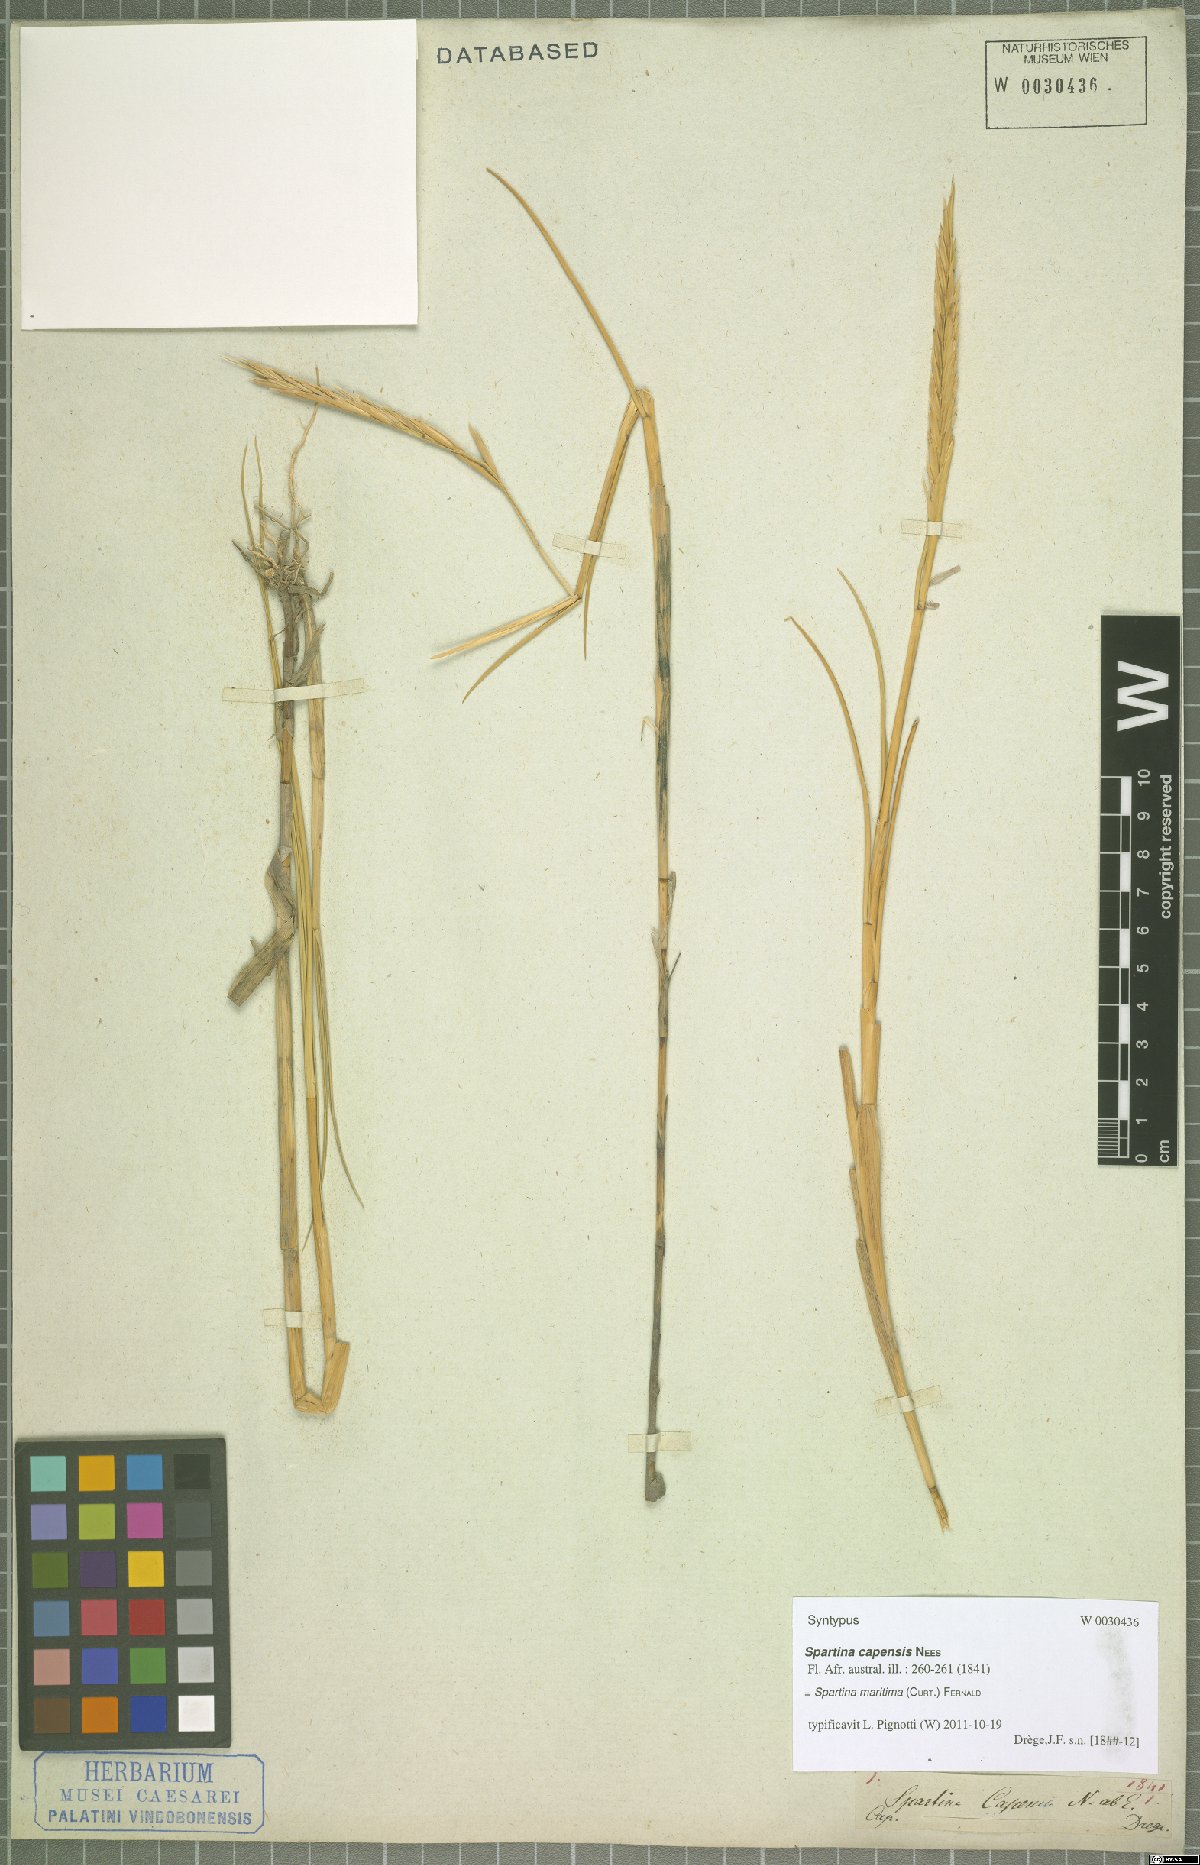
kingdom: Plantae
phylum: Tracheophyta
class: Liliopsida
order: Poales
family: Poaceae
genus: Sporobolus
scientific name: Sporobolus maritimus
